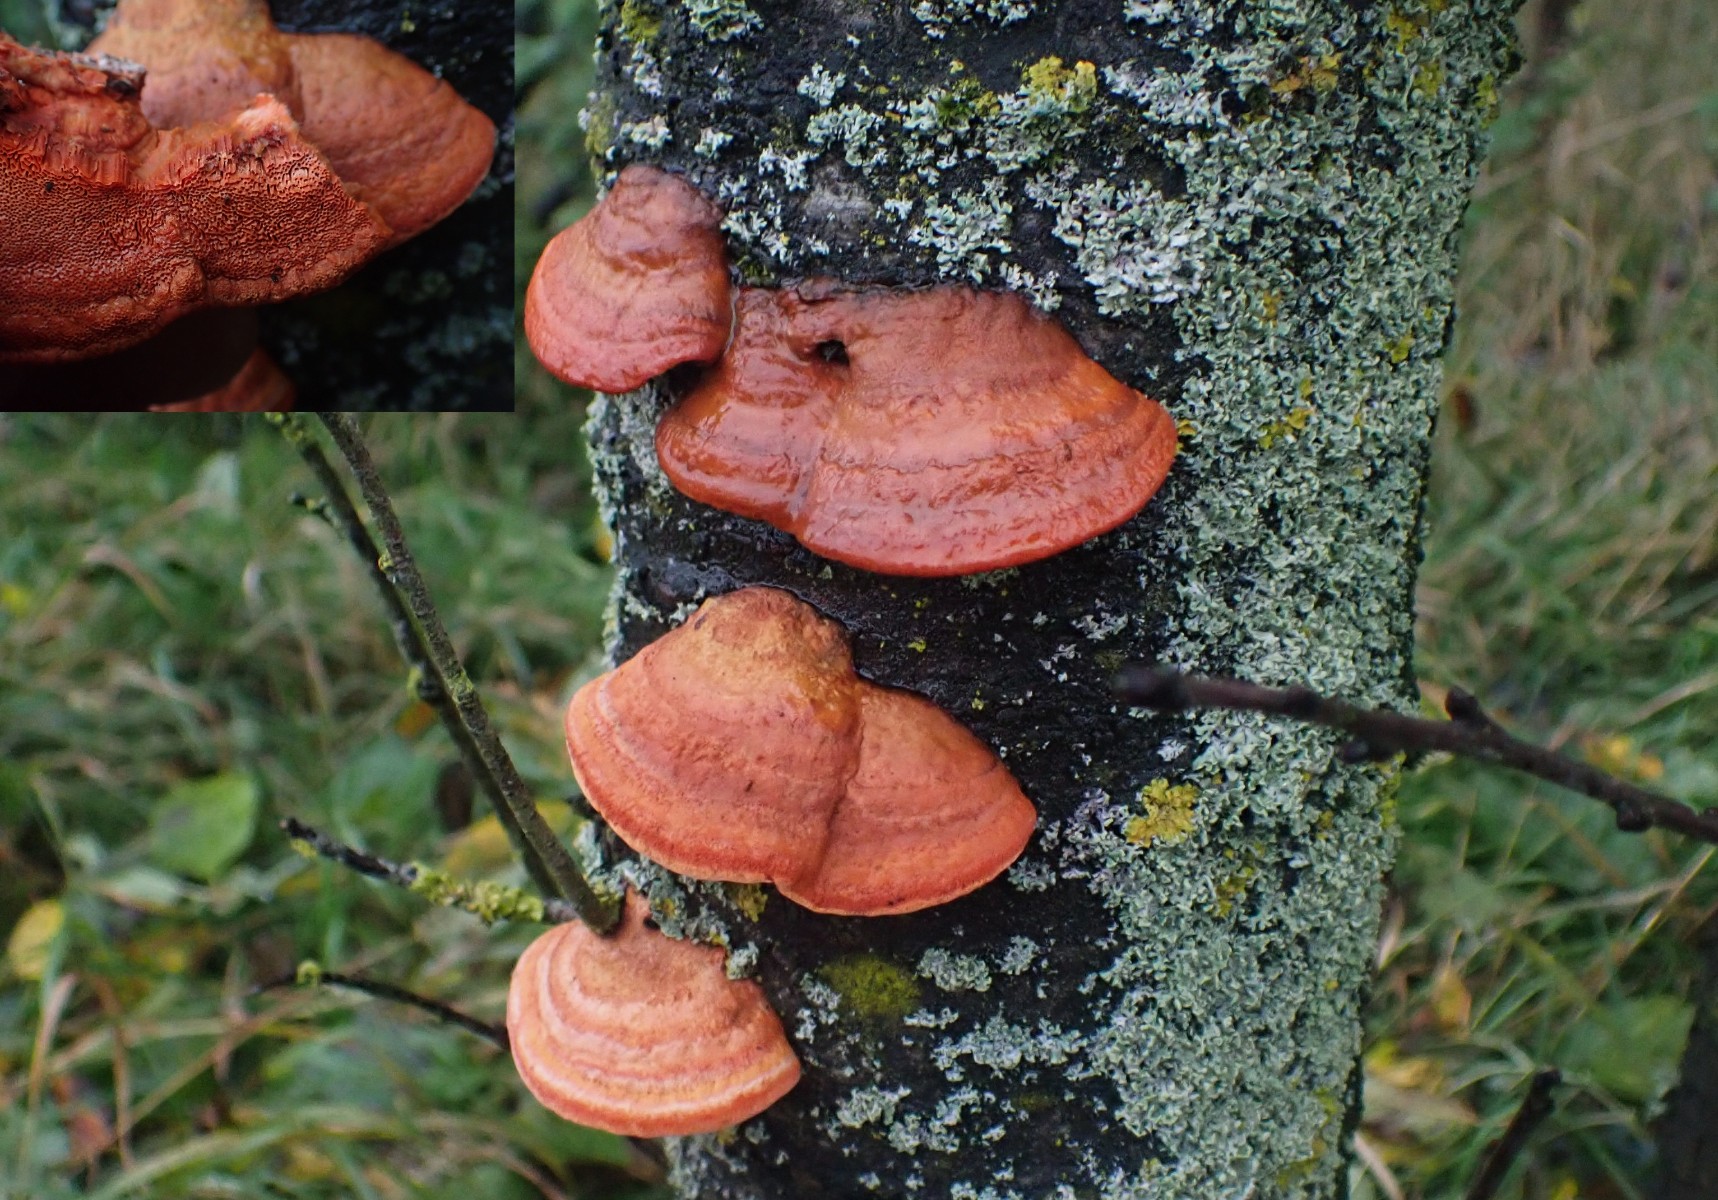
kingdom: Fungi
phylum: Basidiomycota
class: Agaricomycetes
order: Polyporales
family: Polyporaceae
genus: Trametes
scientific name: Trametes cinnabarina
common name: cinnoberporesvamp
